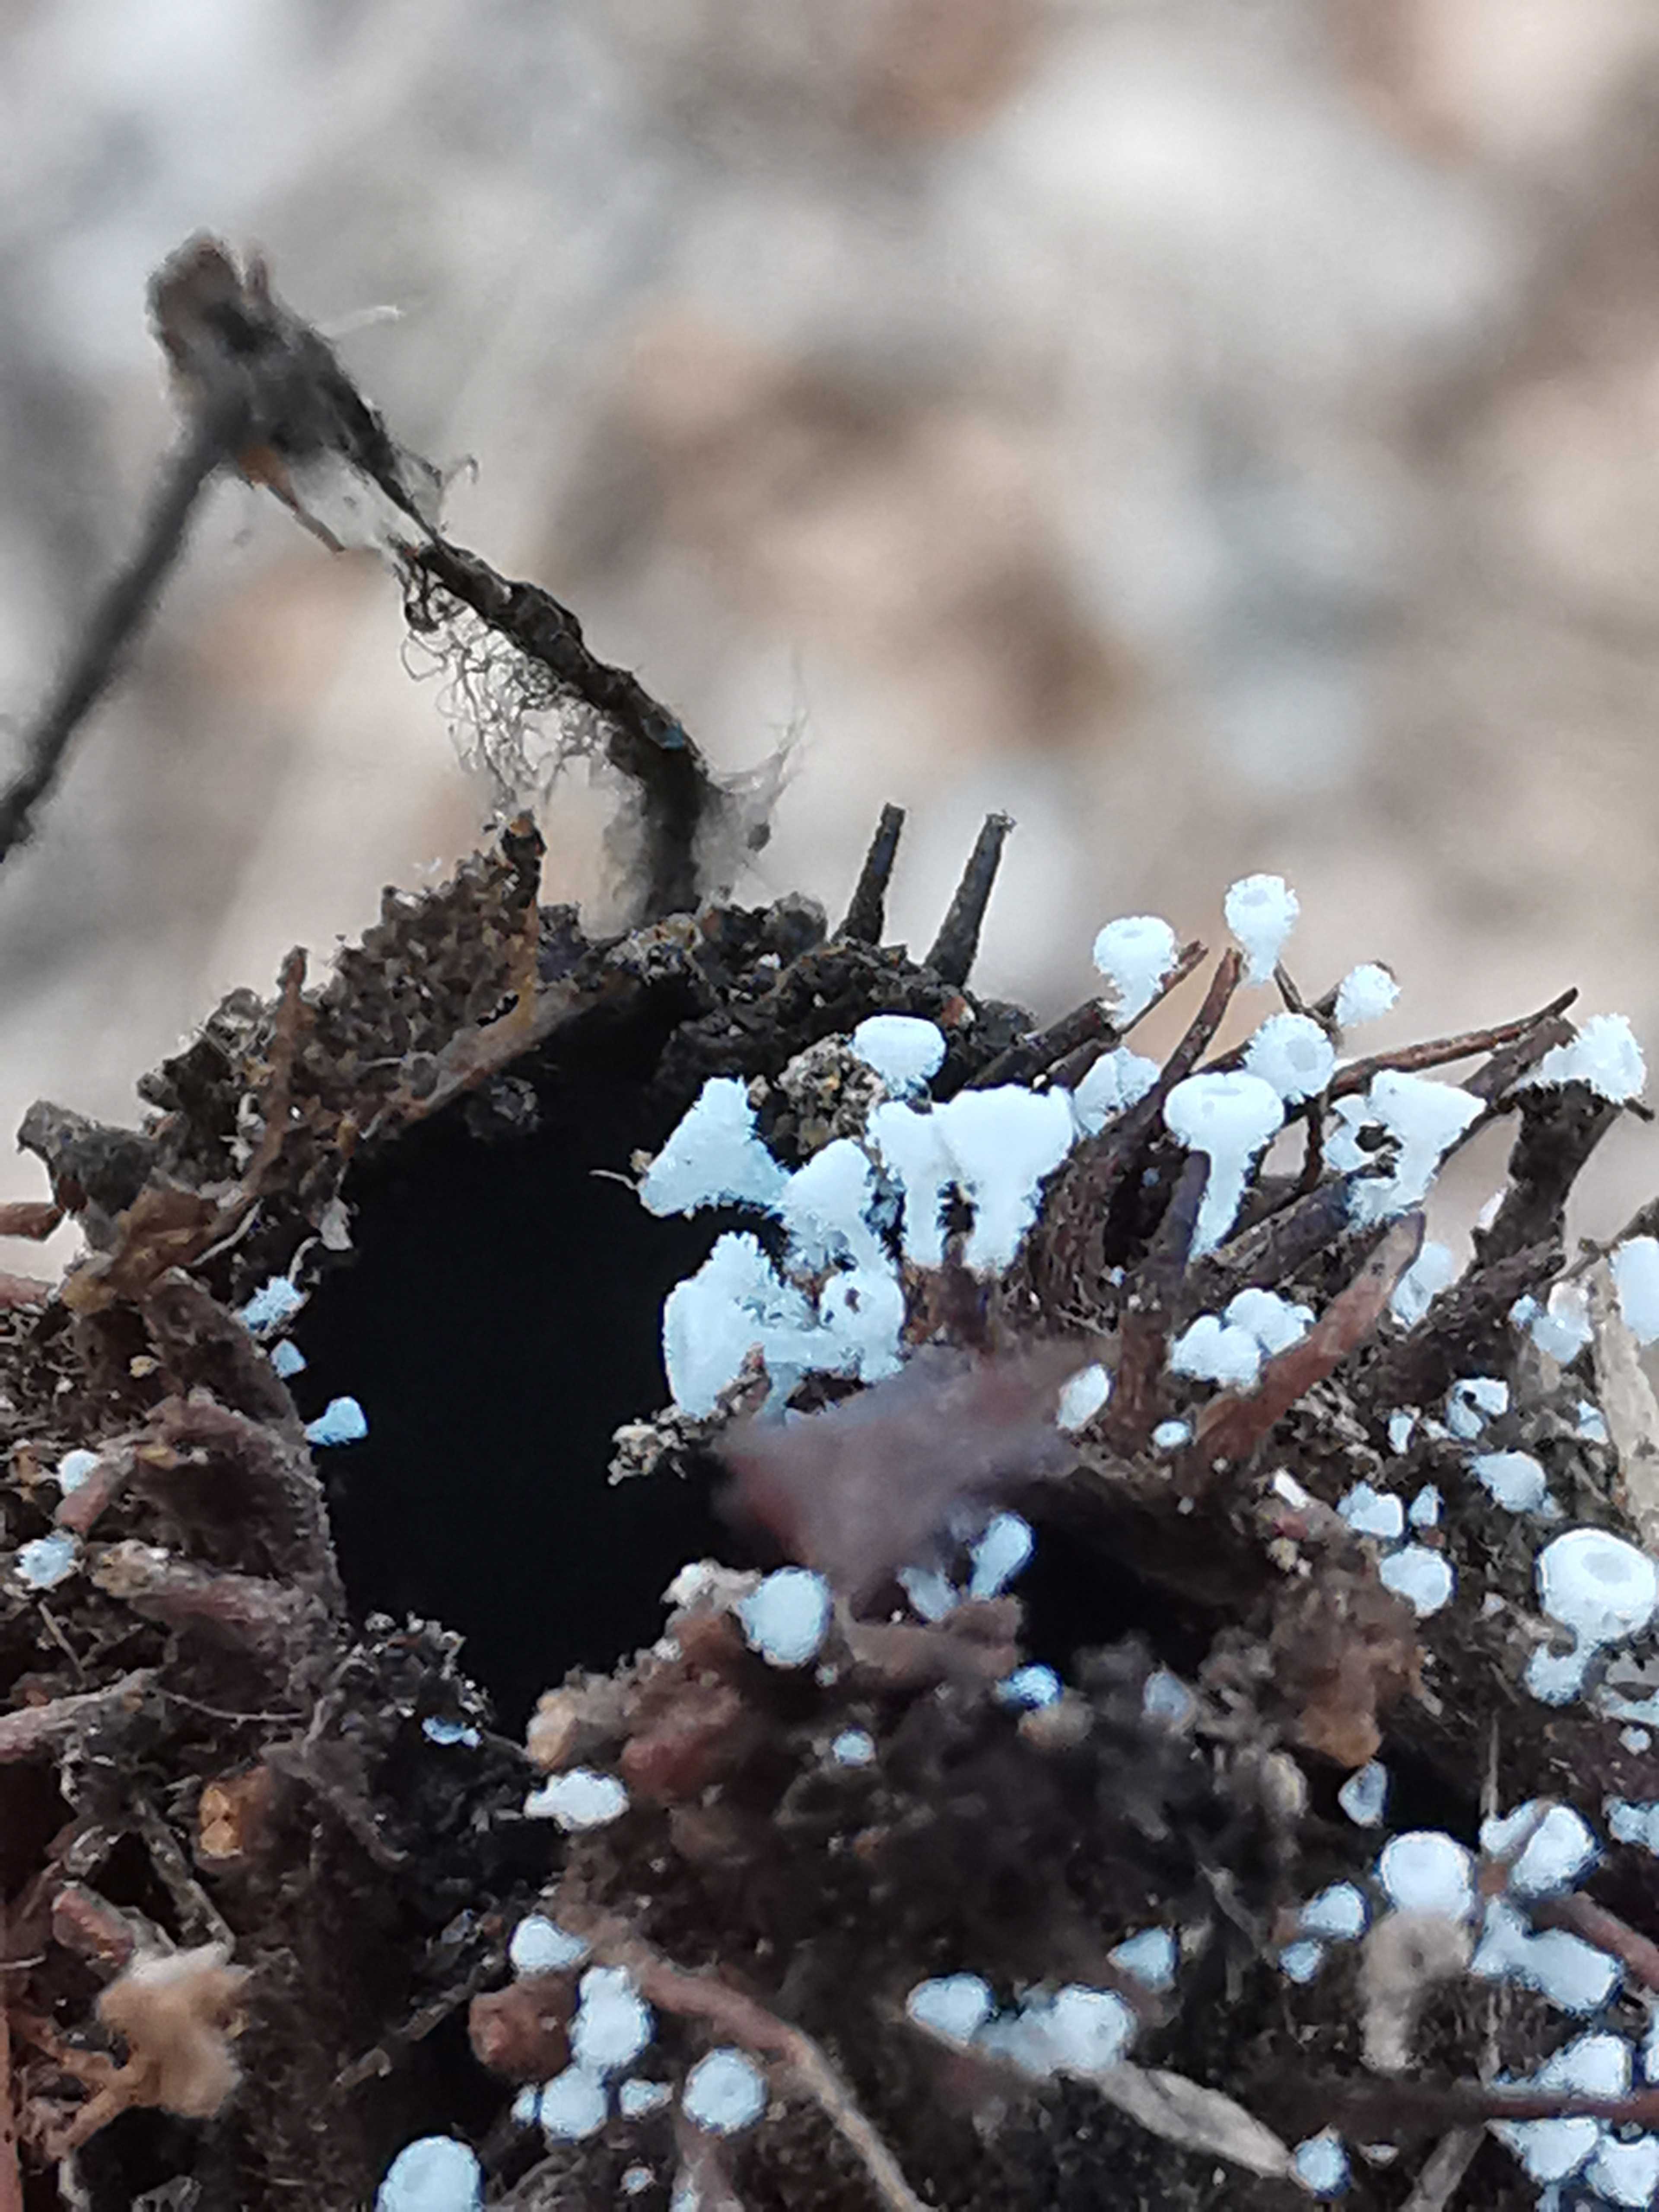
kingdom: Fungi
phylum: Ascomycota
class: Leotiomycetes
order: Helotiales
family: Lachnaceae
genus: Lachnum
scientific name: Lachnum virgineum
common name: jomfru-frynseskive
